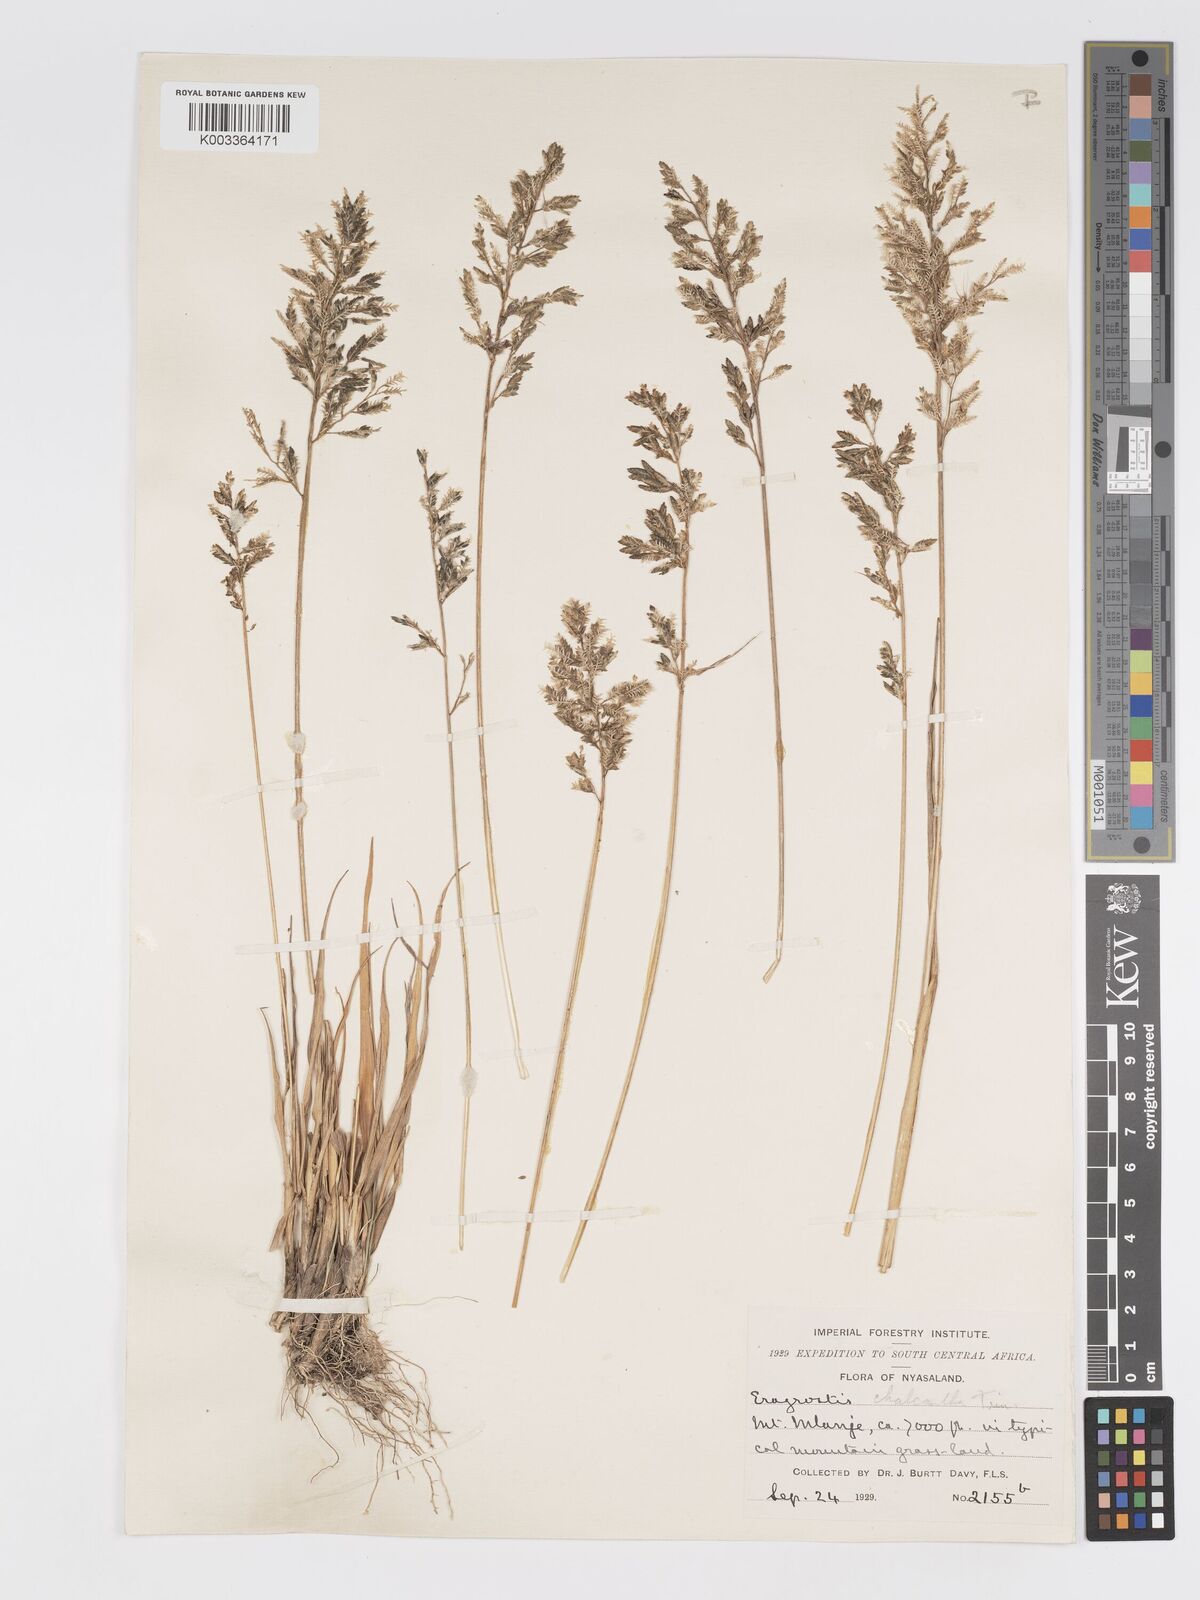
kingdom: Plantae
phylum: Tracheophyta
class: Liliopsida
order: Poales
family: Poaceae
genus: Eragrostis
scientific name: Eragrostis racemosa
